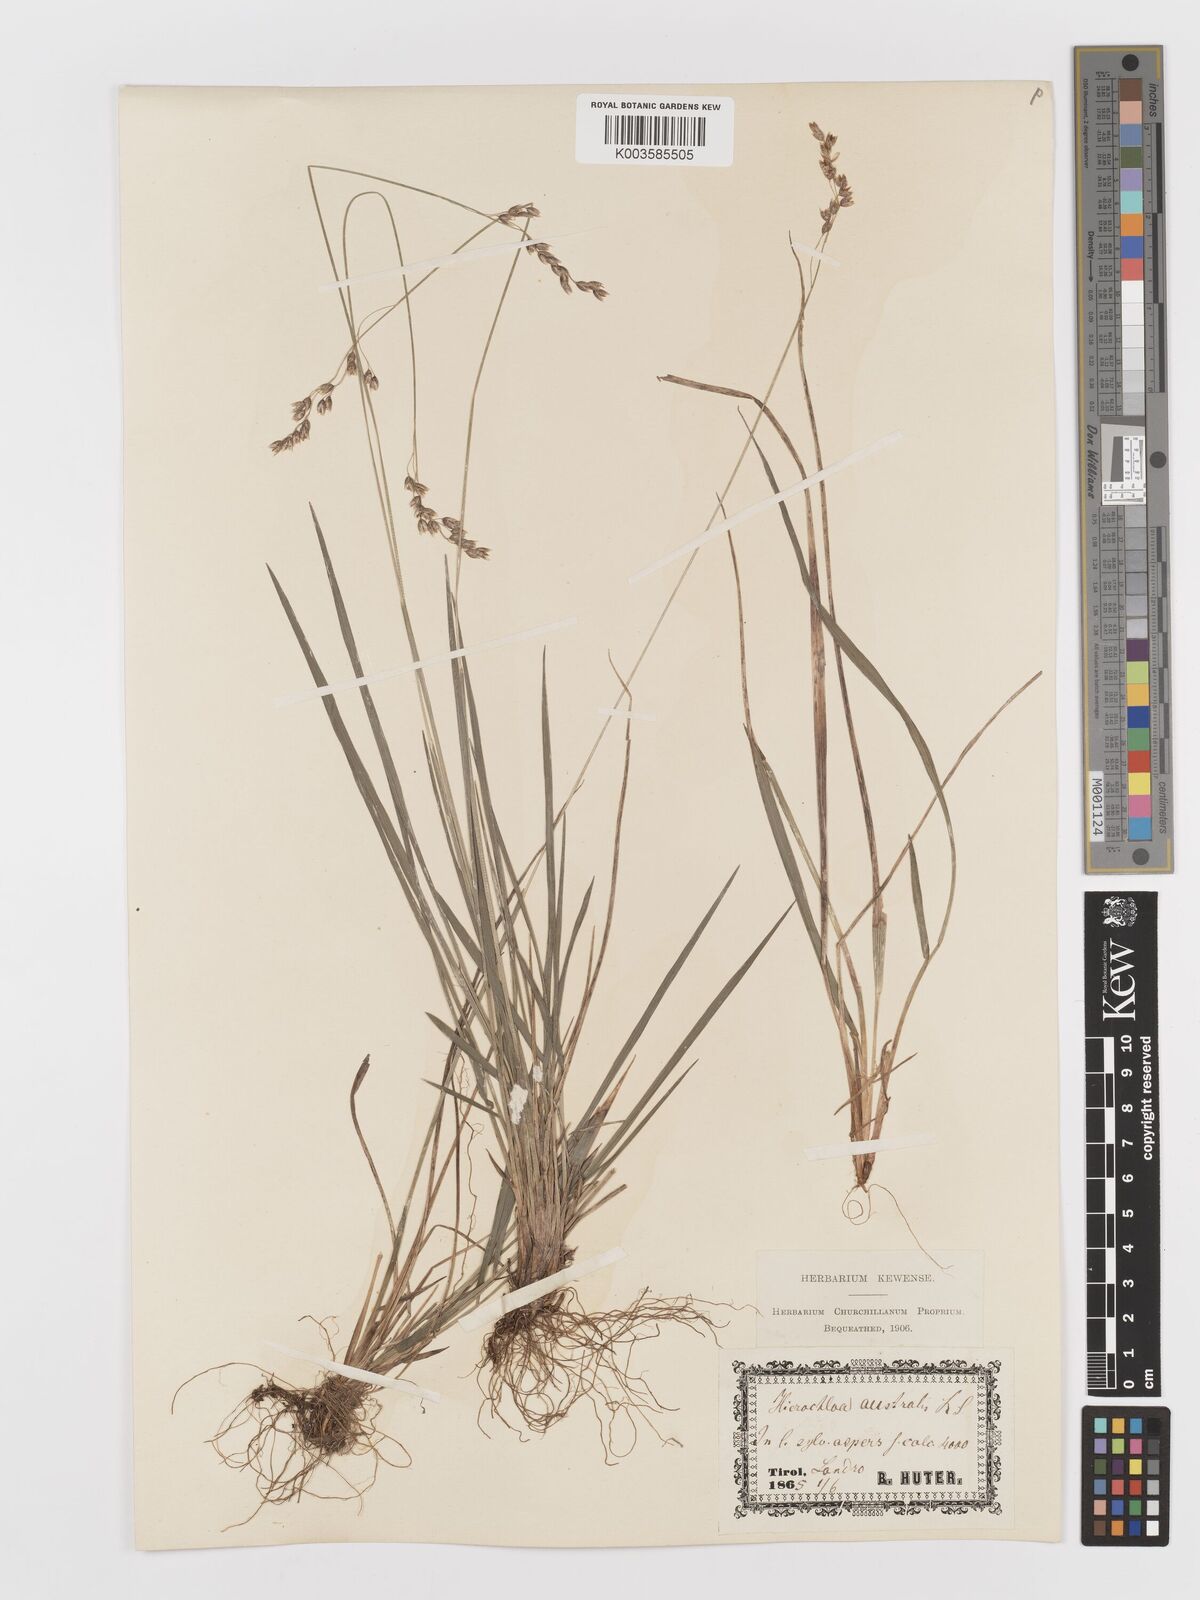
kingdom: Plantae
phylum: Tracheophyta
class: Liliopsida
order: Poales
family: Poaceae
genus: Anthoxanthum
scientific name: Anthoxanthum australe
